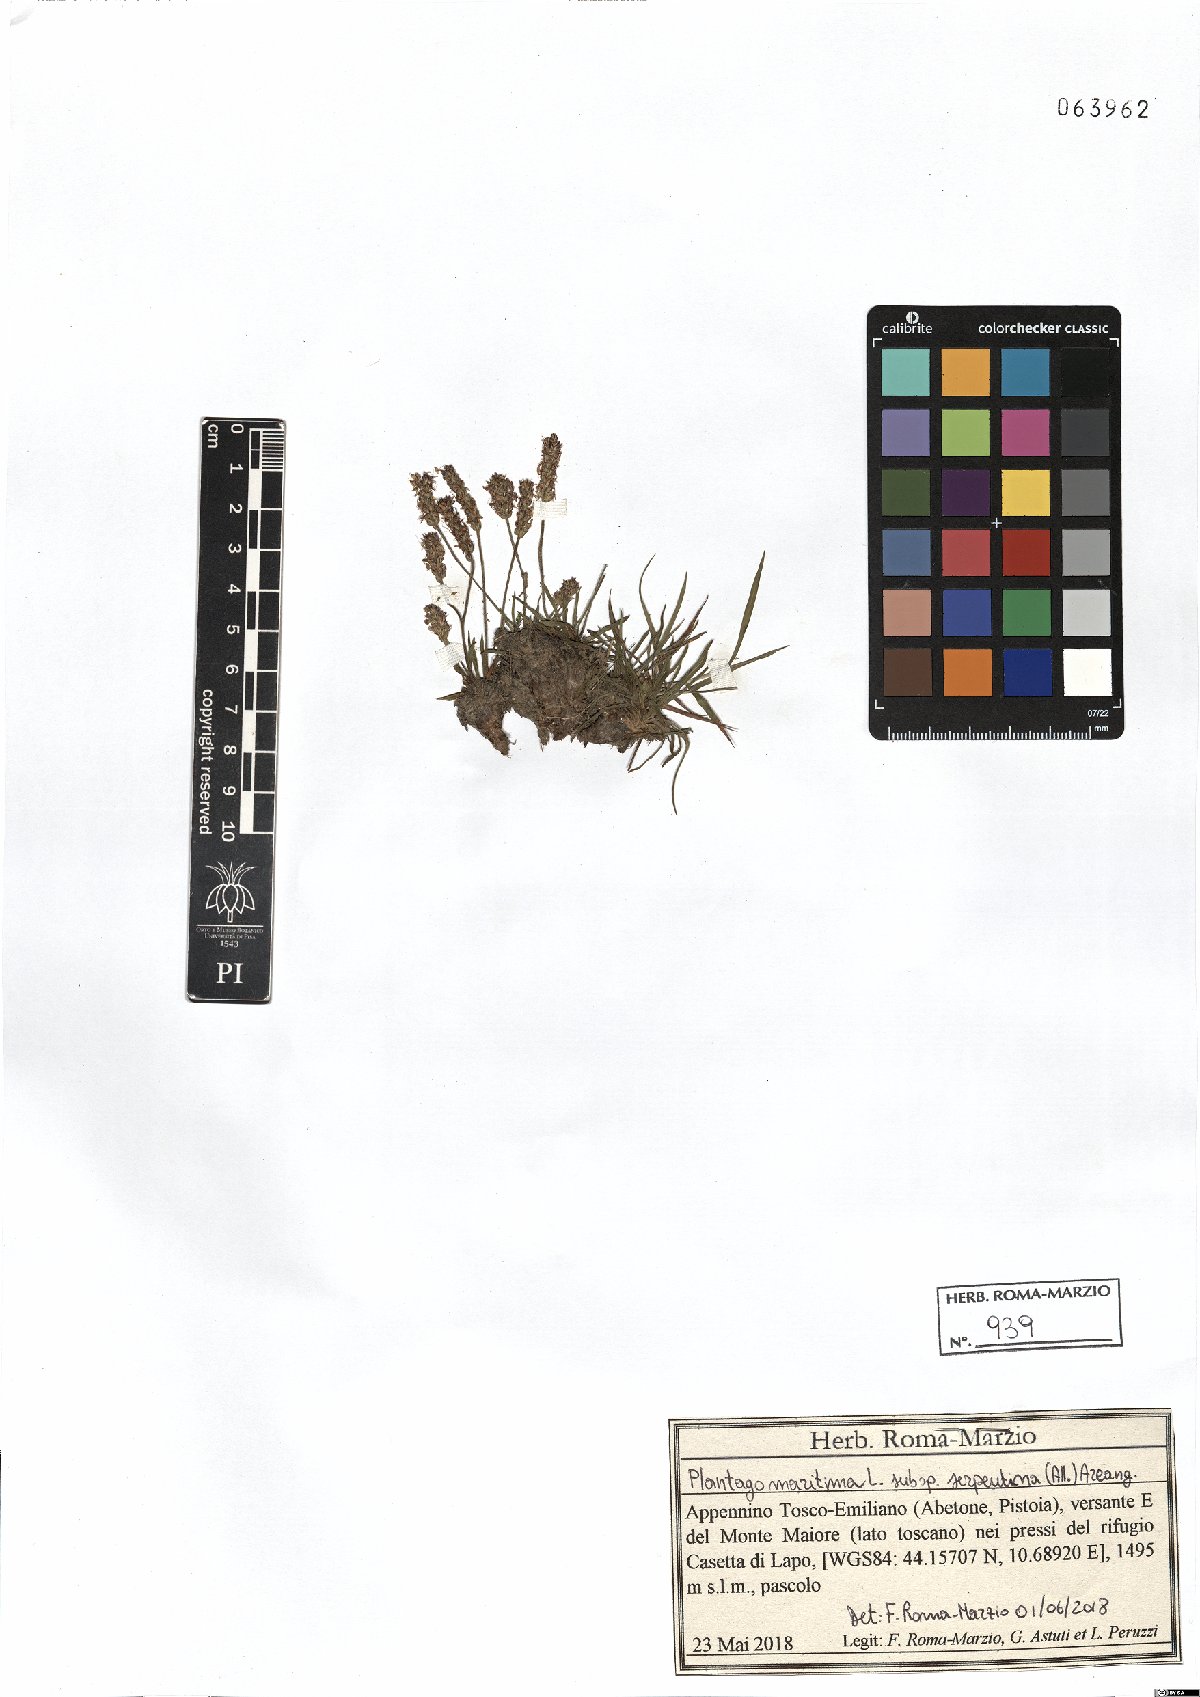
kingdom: Plantae
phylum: Tracheophyta
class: Magnoliopsida
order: Lamiales
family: Plantaginaceae
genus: Plantago
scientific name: Plantago strictissima
